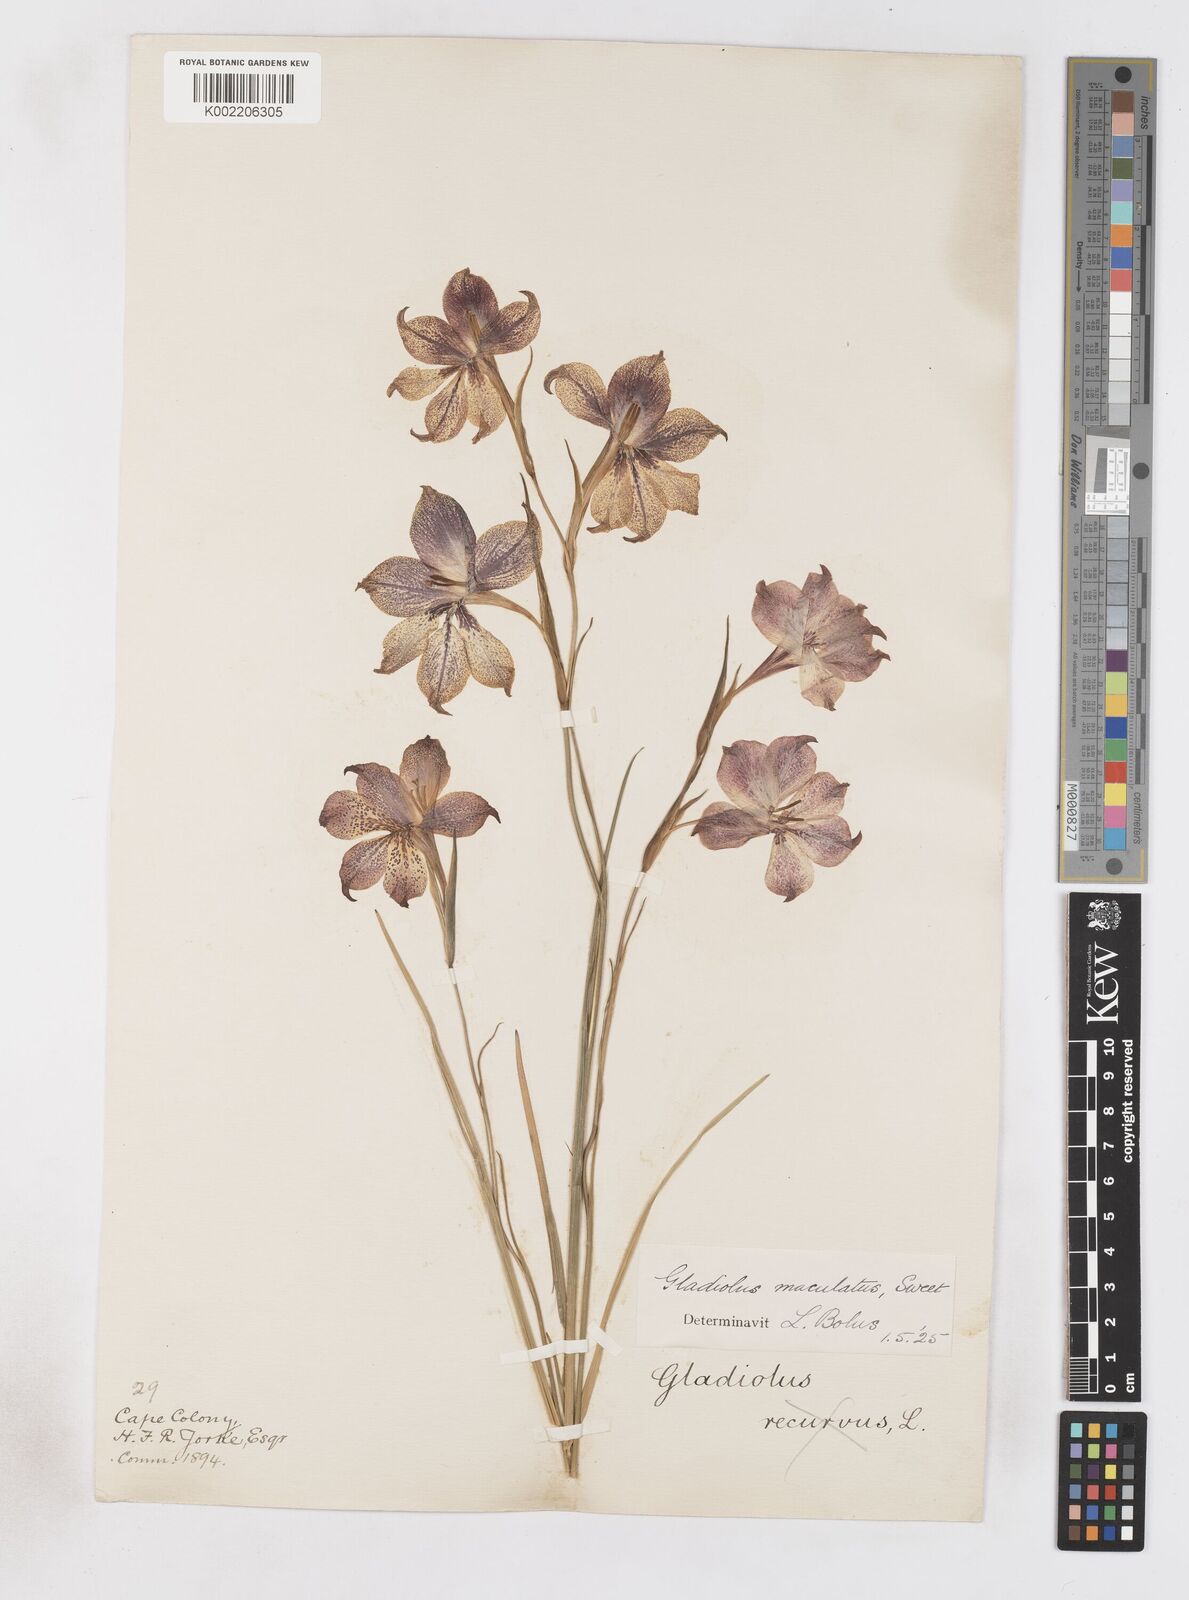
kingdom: Plantae
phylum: Tracheophyta
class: Liliopsida
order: Asparagales
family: Iridaceae
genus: Gladiolus
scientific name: Gladiolus maculatus
